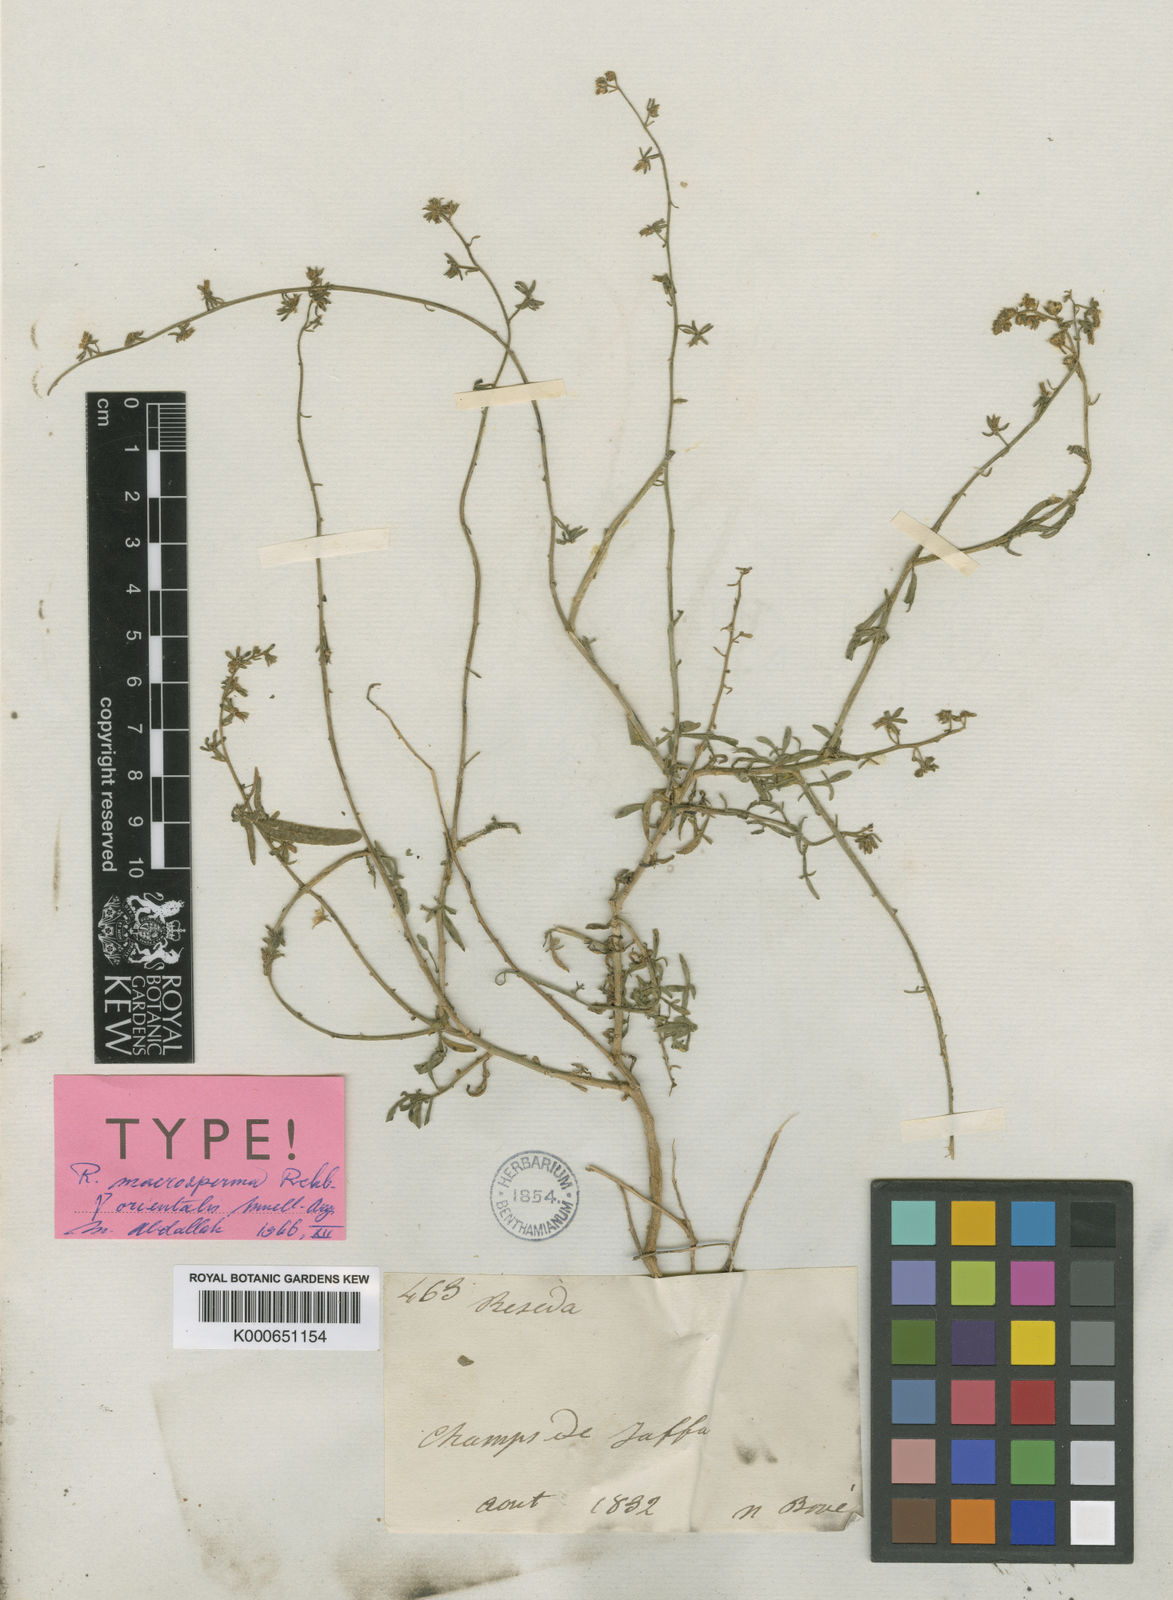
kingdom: Plantae
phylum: Tracheophyta
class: Magnoliopsida
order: Brassicales
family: Resedaceae
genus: Reseda
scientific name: Reseda orientalis
